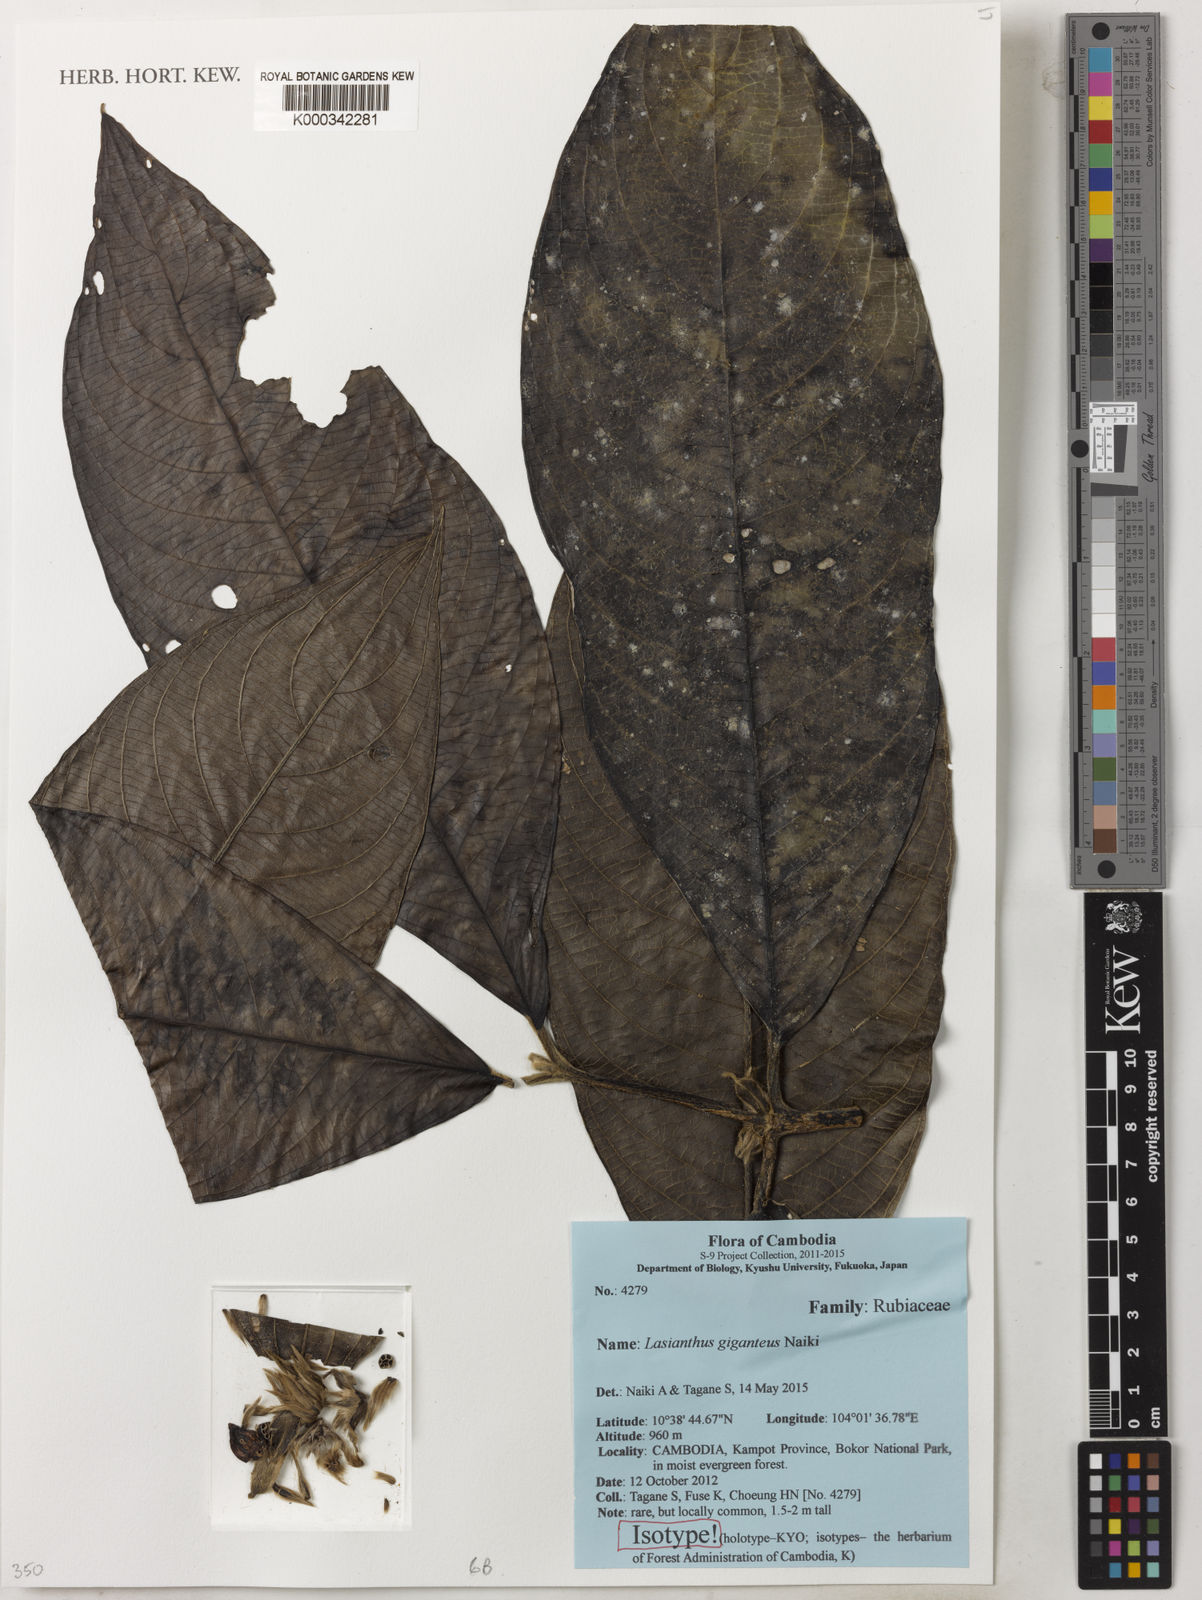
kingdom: Plantae
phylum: Tracheophyta
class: Magnoliopsida
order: Gentianales
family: Rubiaceae
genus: Lasianthus
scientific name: Lasianthus giganteus
